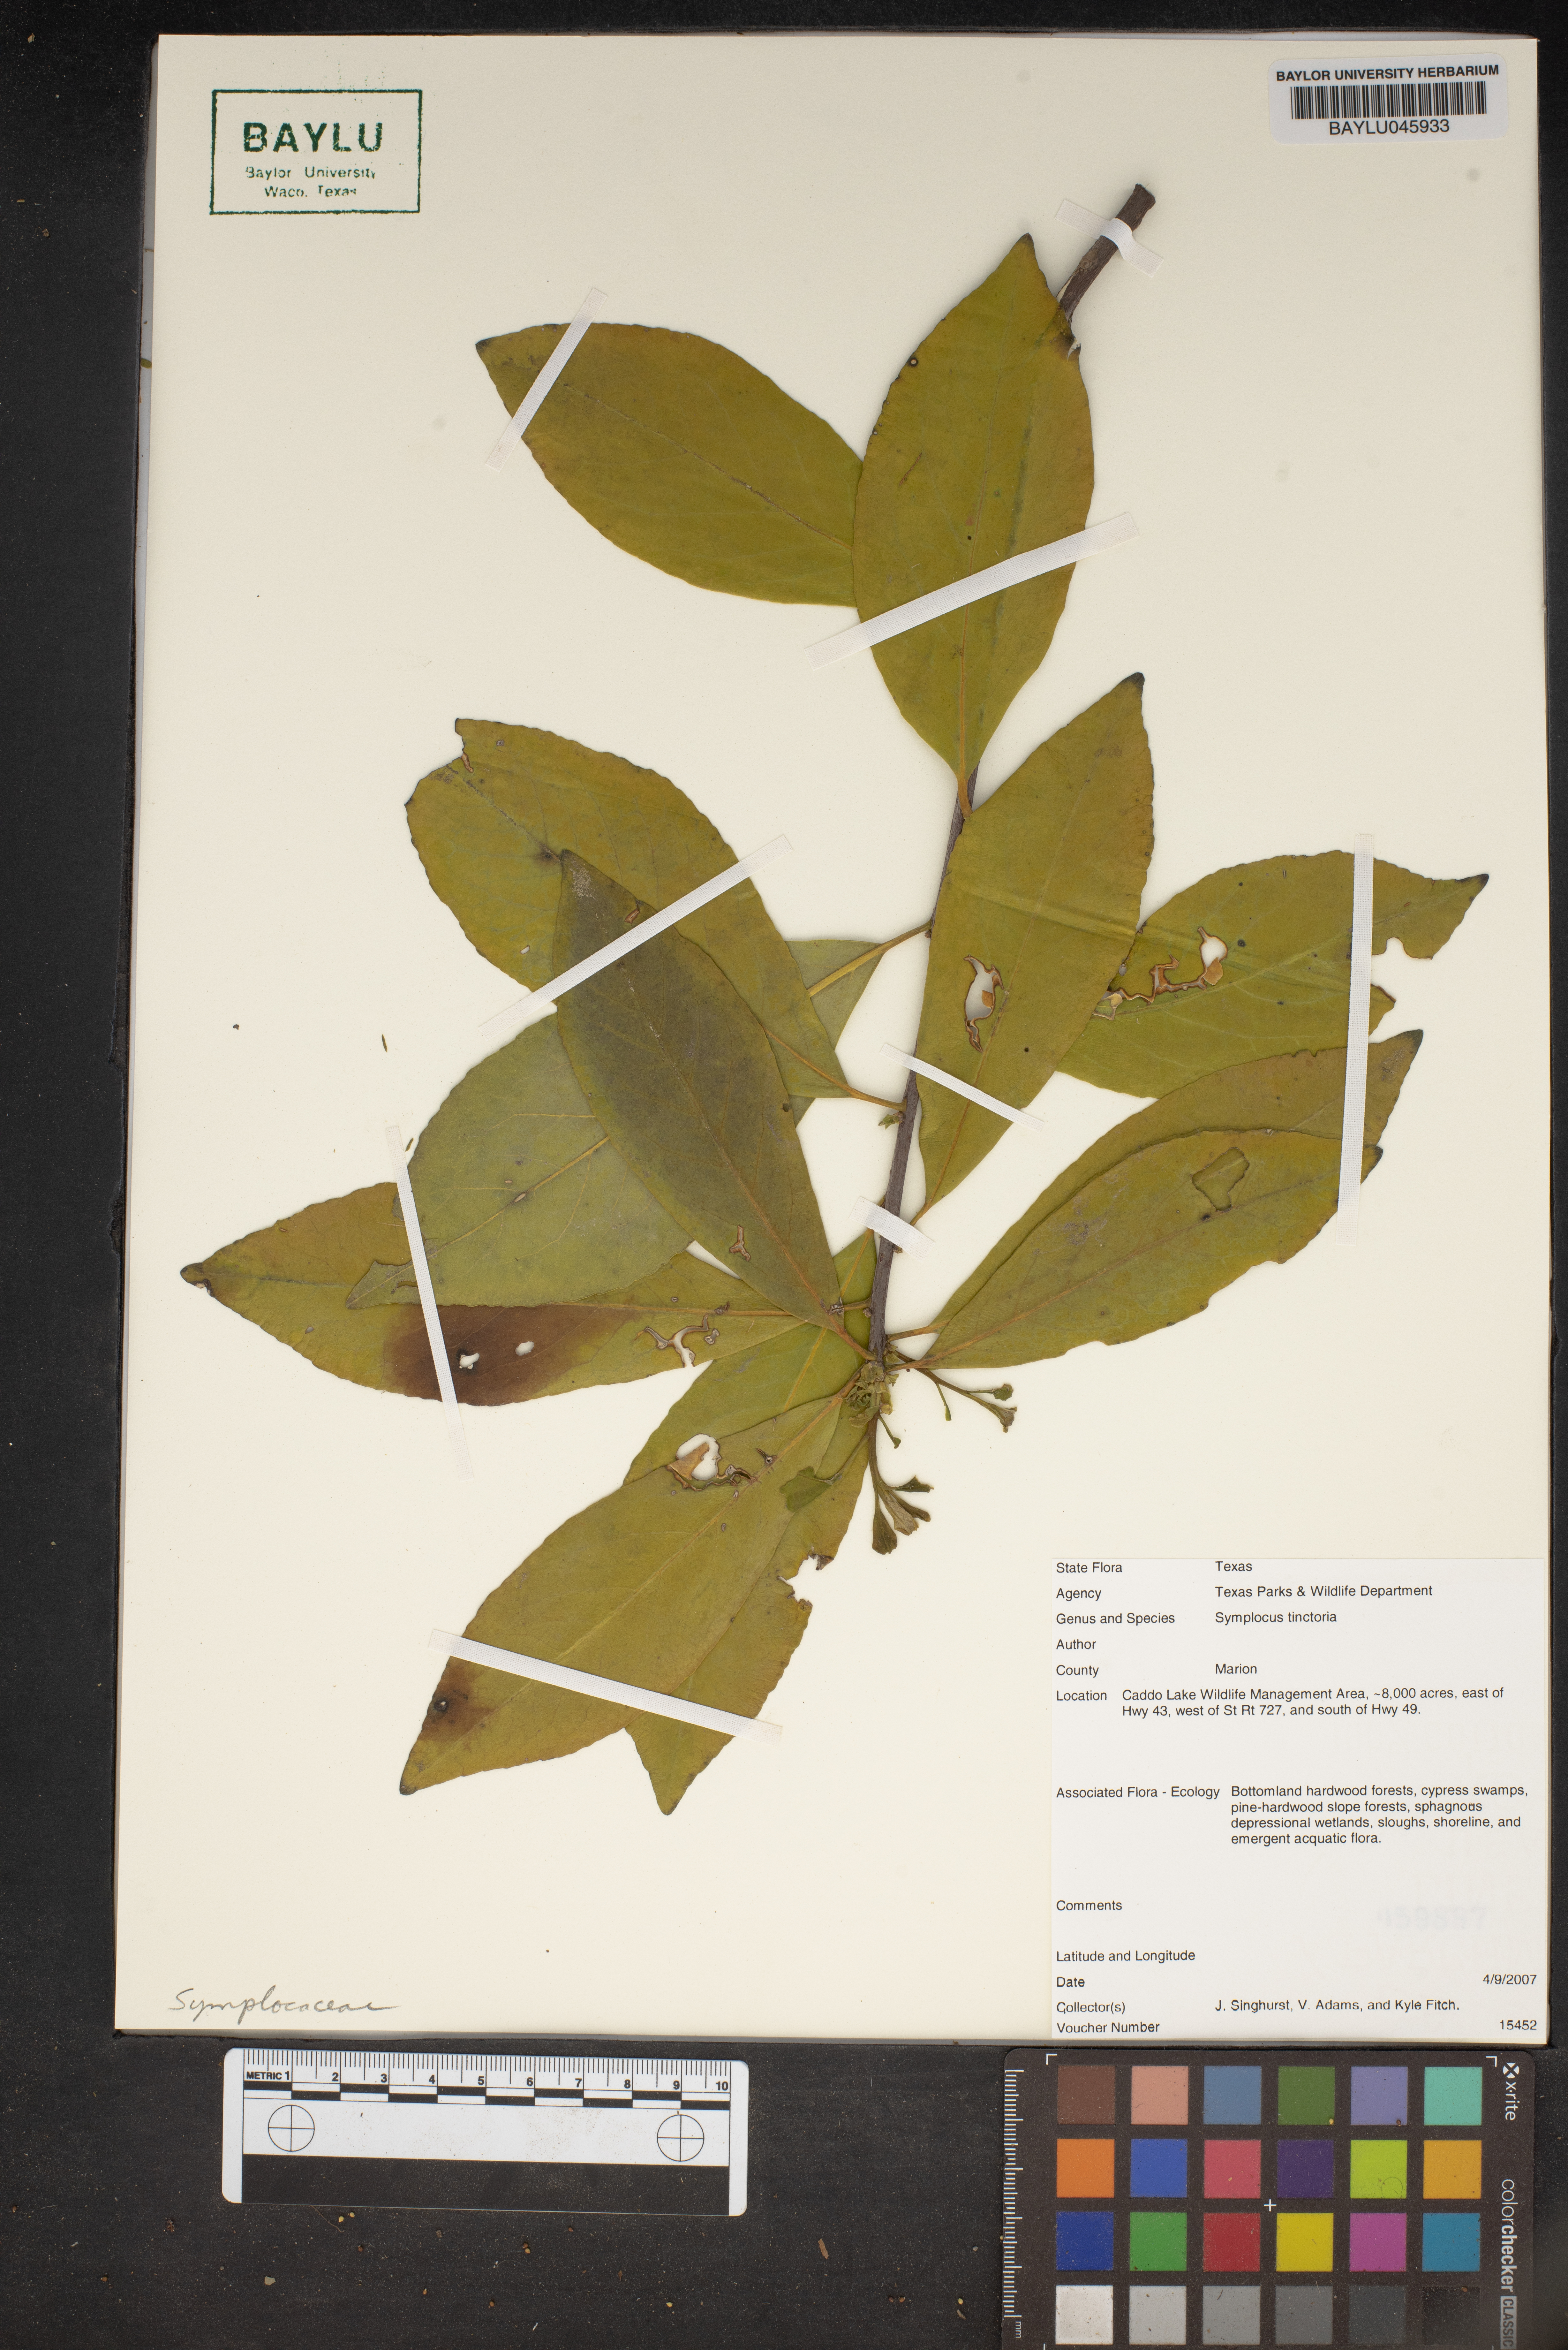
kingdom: Plantae
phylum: Tracheophyta
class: Magnoliopsida
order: Ericales
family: Symplocaceae
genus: Symplocos
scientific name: Symplocos tinctoria
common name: Horse-sugar
